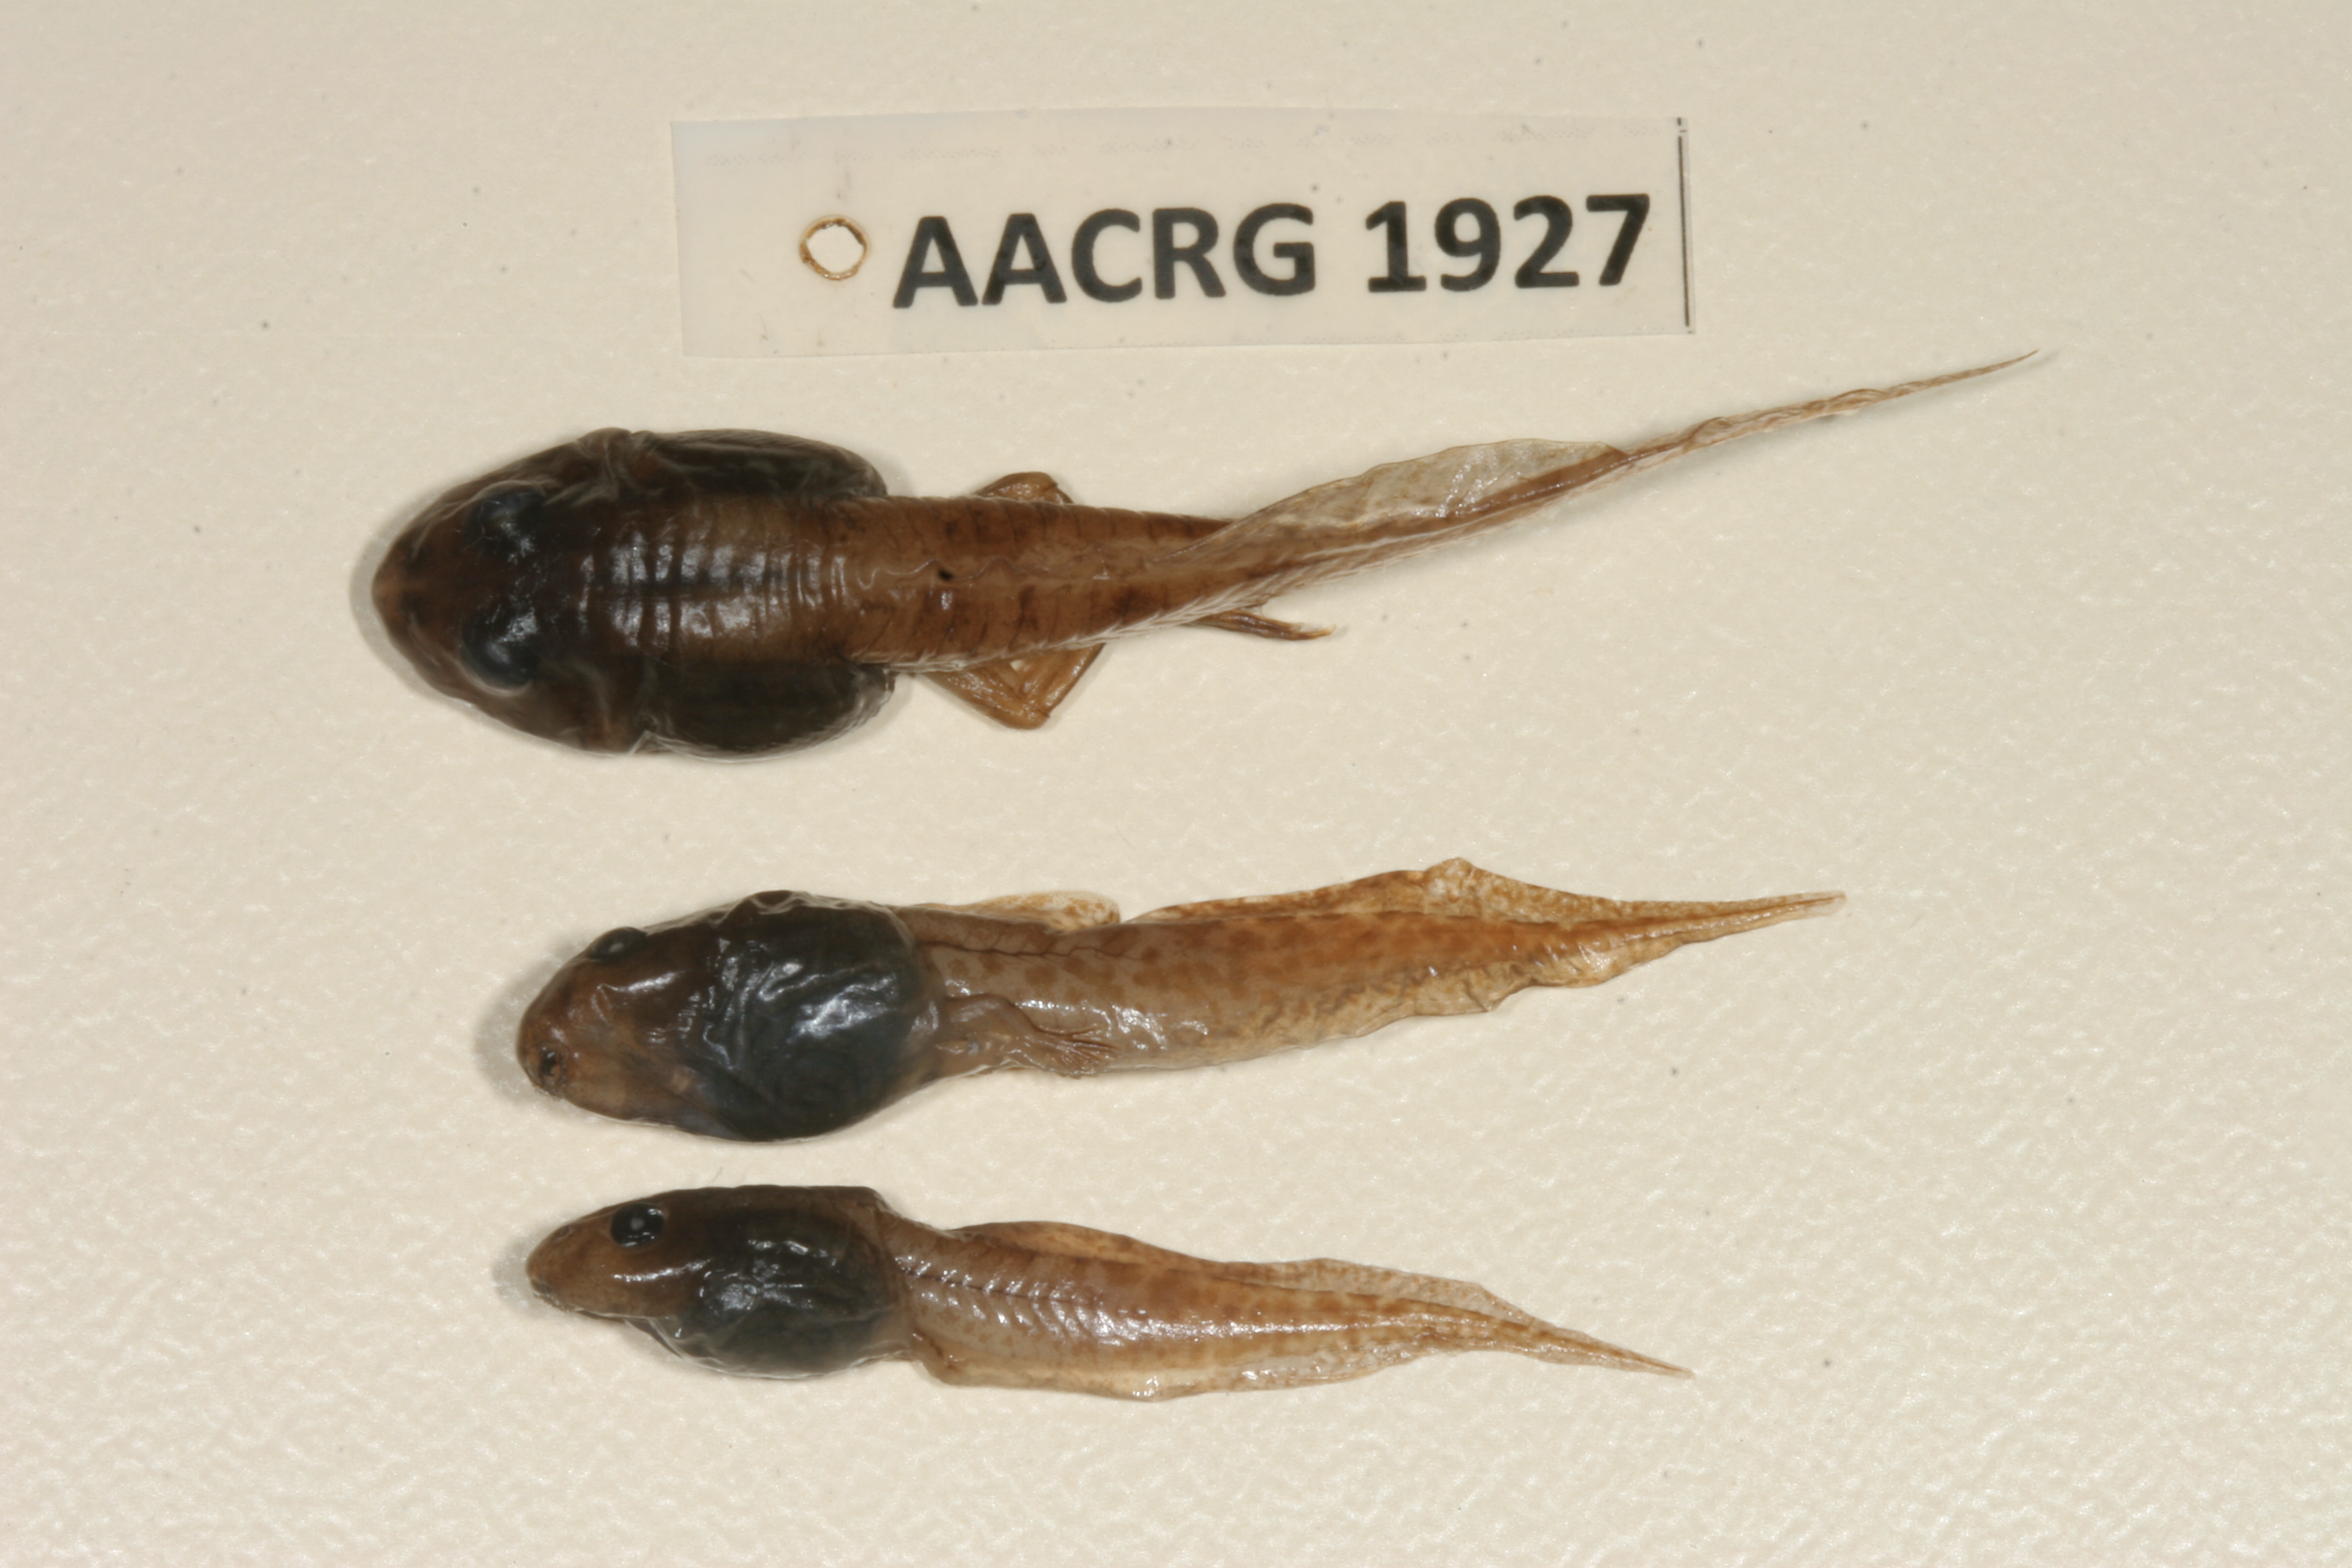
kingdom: Animalia
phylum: Chordata
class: Amphibia
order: Anura
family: Ptychadenidae
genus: Ptychadena
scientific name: Ptychadena mossambica
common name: Mozambique ridged frog
